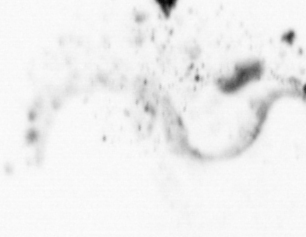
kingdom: Animalia
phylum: Chordata
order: Copelata
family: Fritillariidae
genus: Appendicularia
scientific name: Appendicularia
